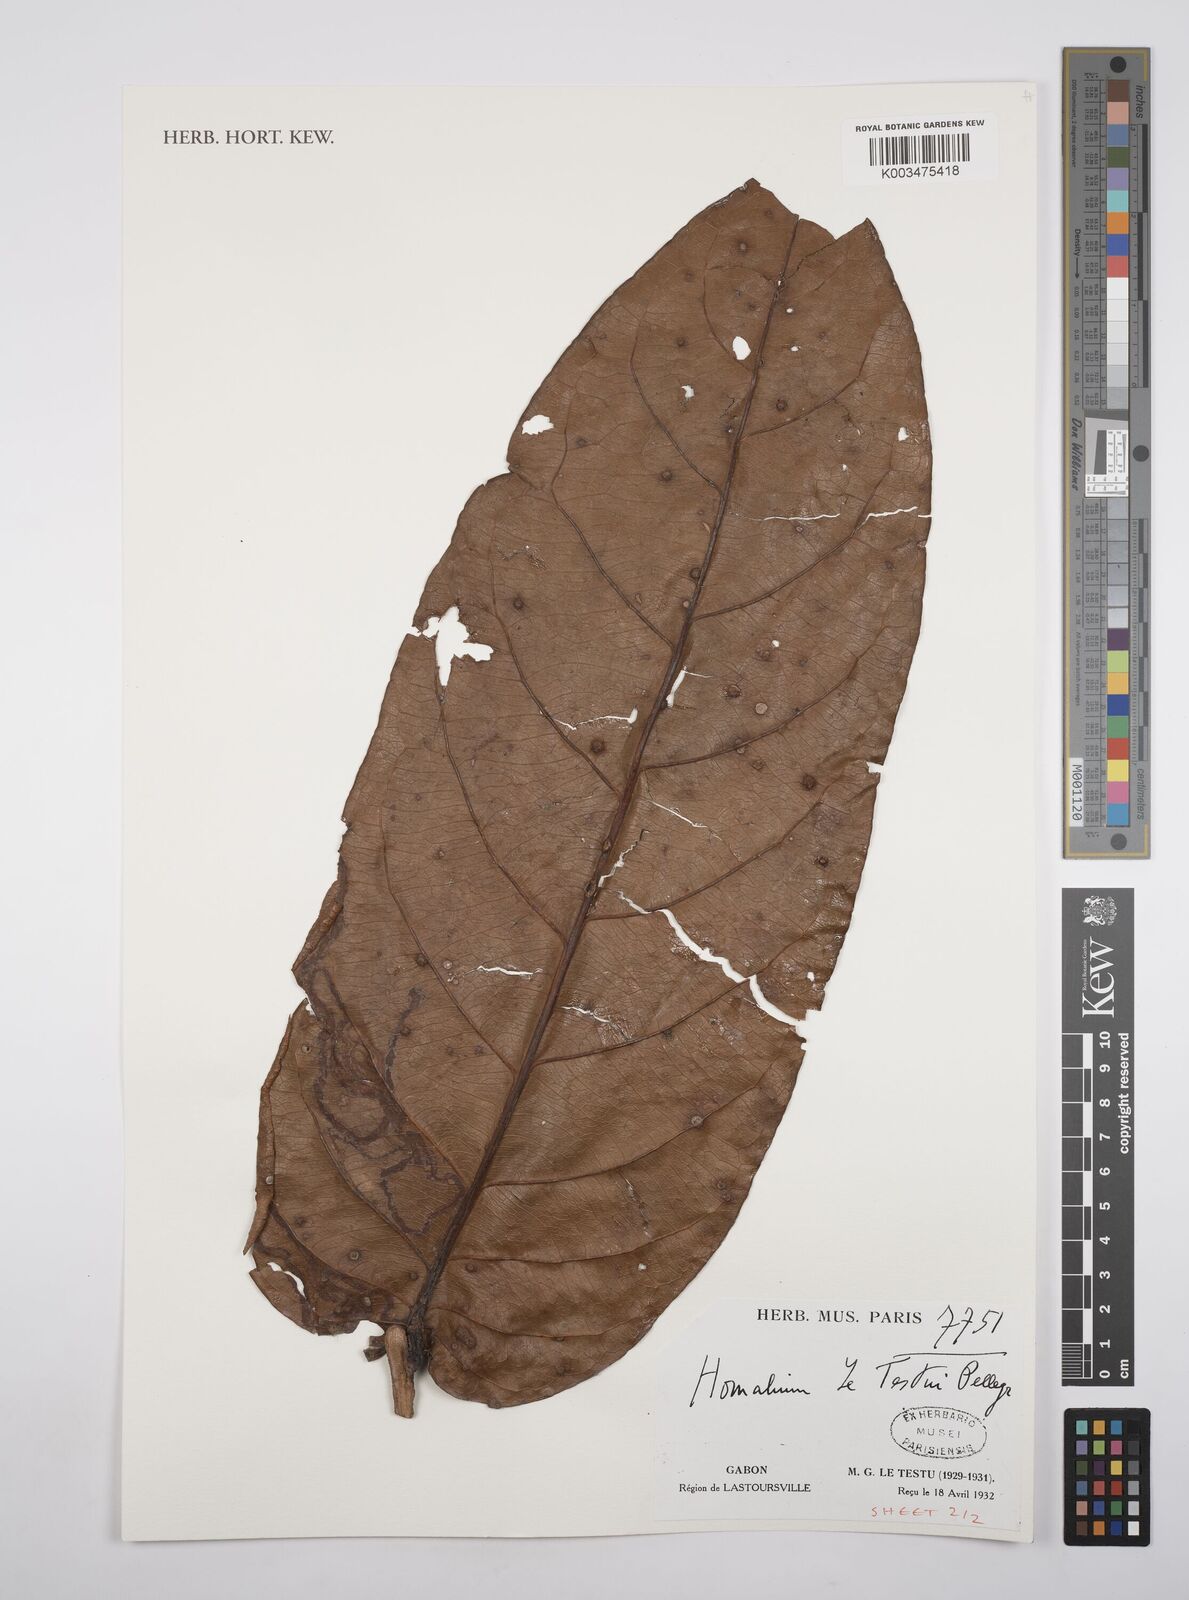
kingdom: Plantae
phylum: Tracheophyta
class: Magnoliopsida
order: Malpighiales
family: Salicaceae
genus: Homalium
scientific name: Homalium letestui
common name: African homalium
